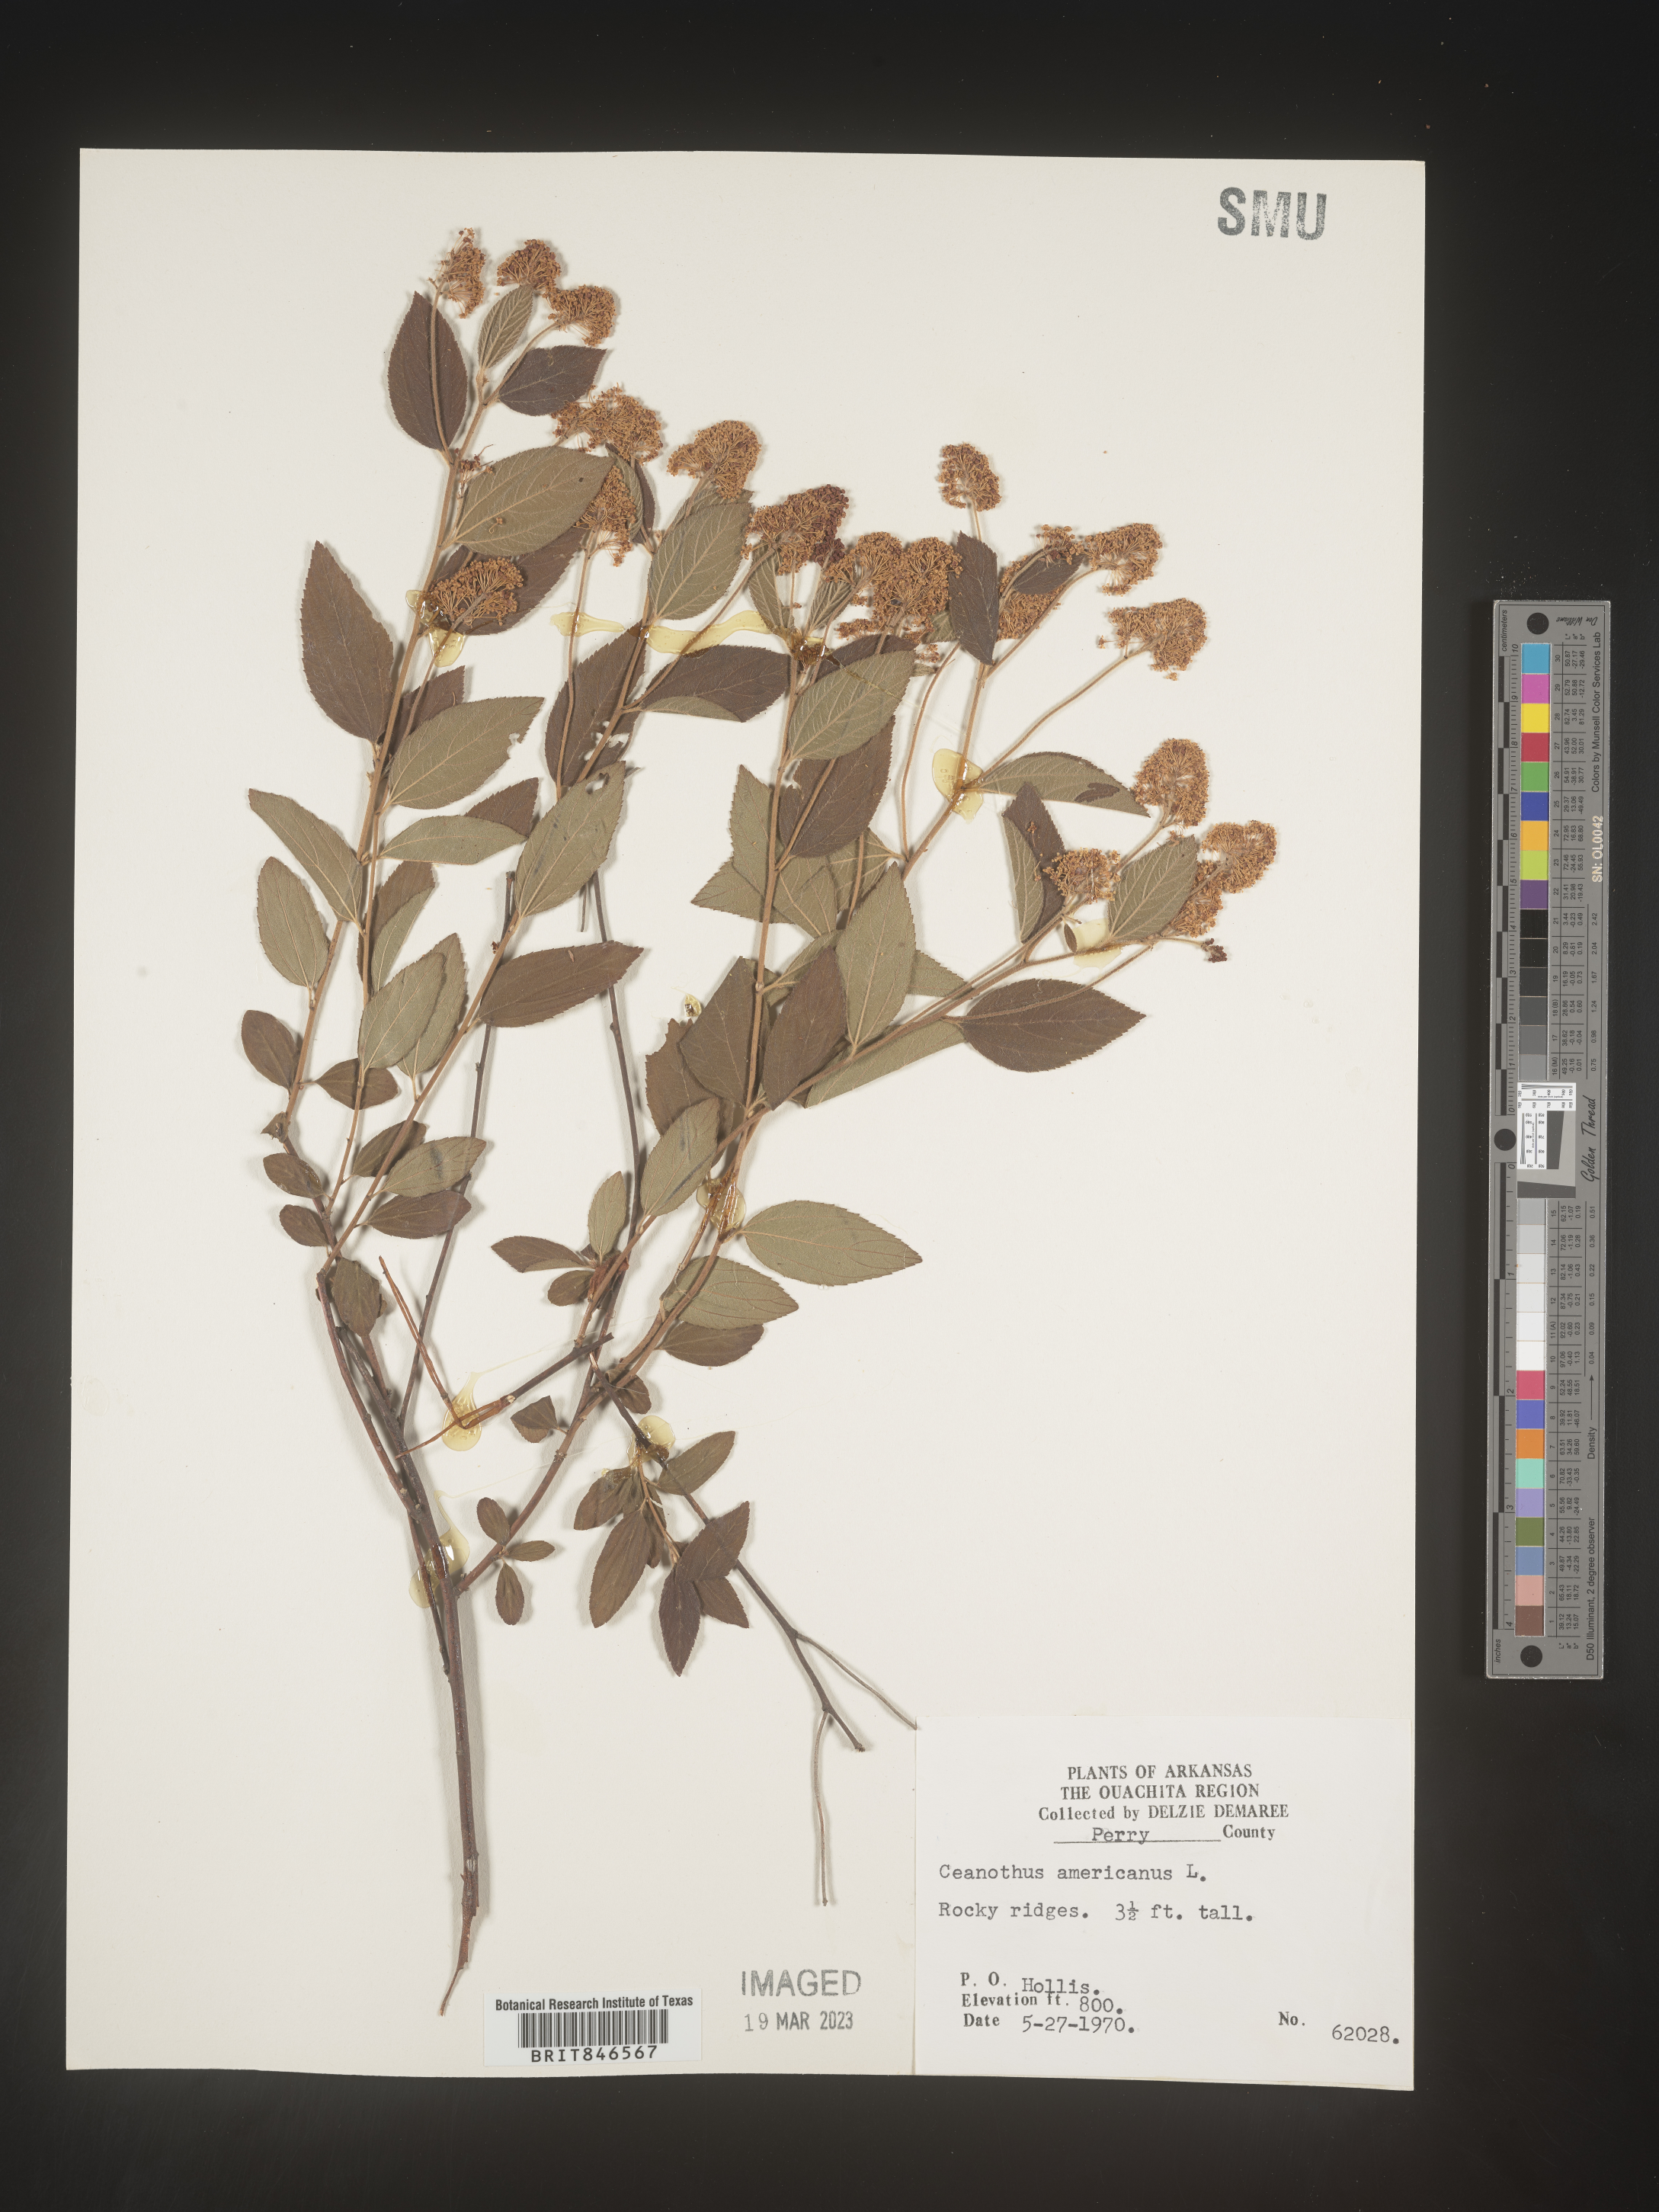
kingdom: Plantae
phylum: Tracheophyta
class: Magnoliopsida
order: Rosales
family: Rhamnaceae
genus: Ceanothus
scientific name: Ceanothus americanus
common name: Redroot
